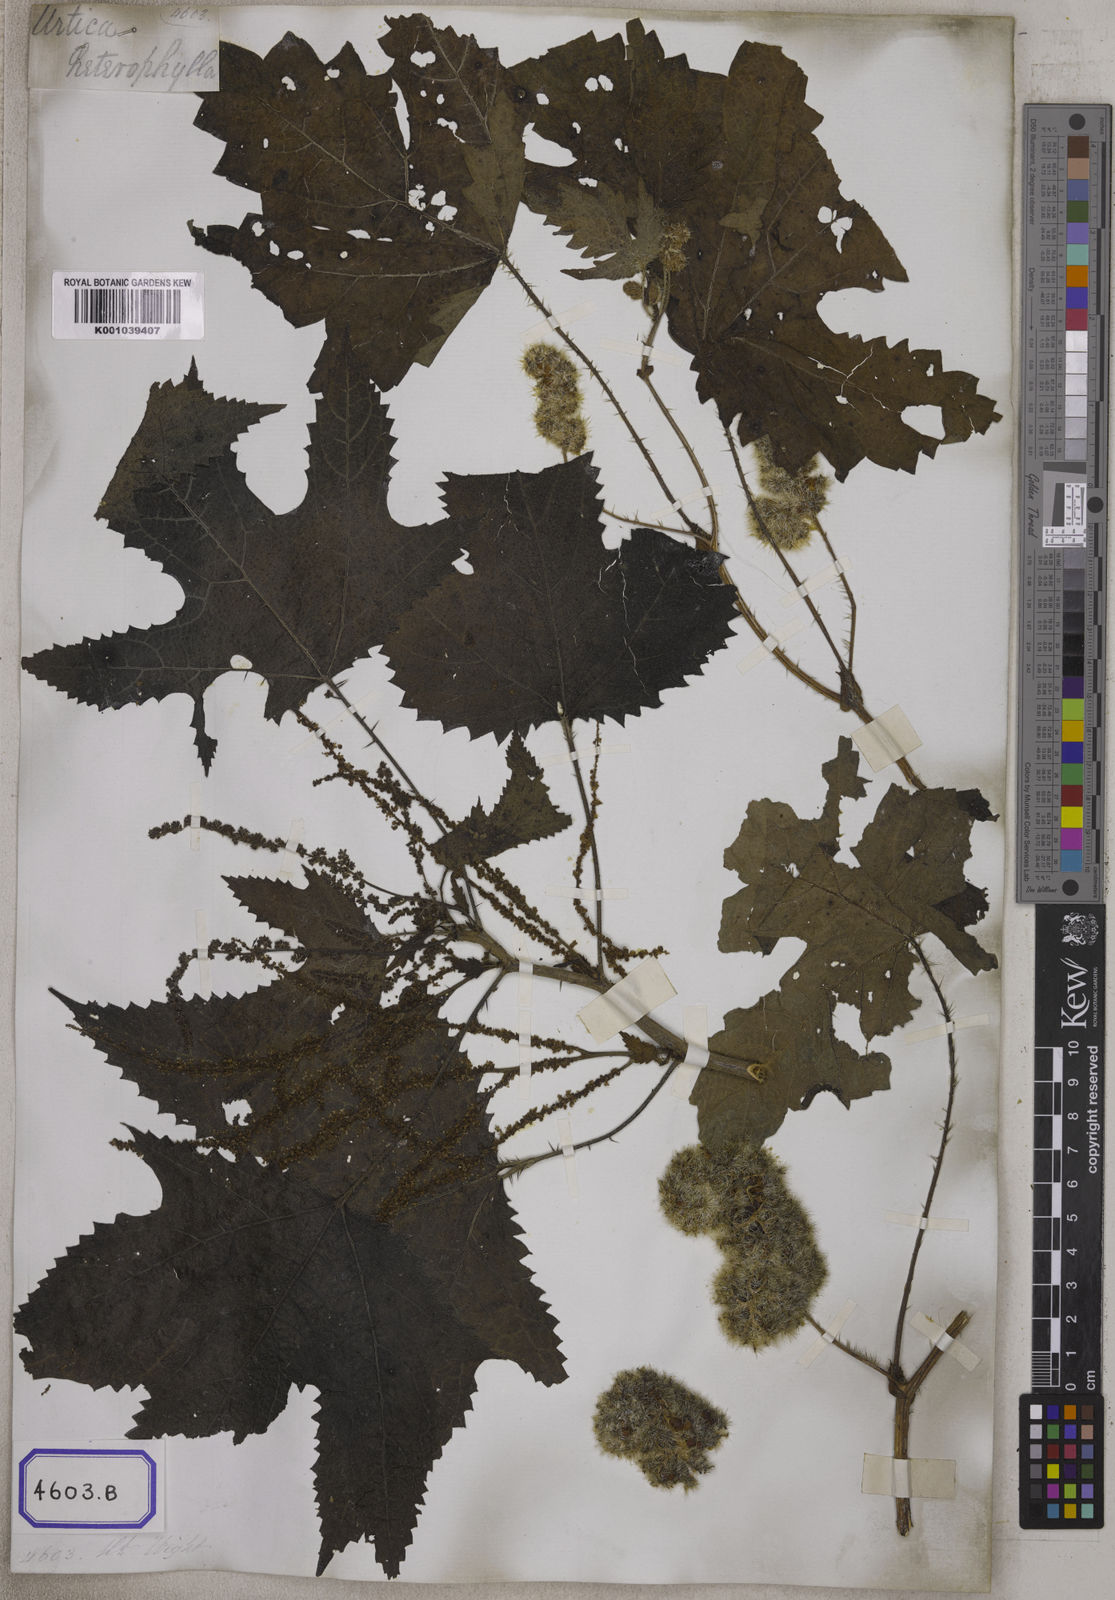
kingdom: Plantae
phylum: Tracheophyta
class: Magnoliopsida
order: Rosales
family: Urticaceae
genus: Girardinia
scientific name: Girardinia diversifolia
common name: Himalayan-nettle
